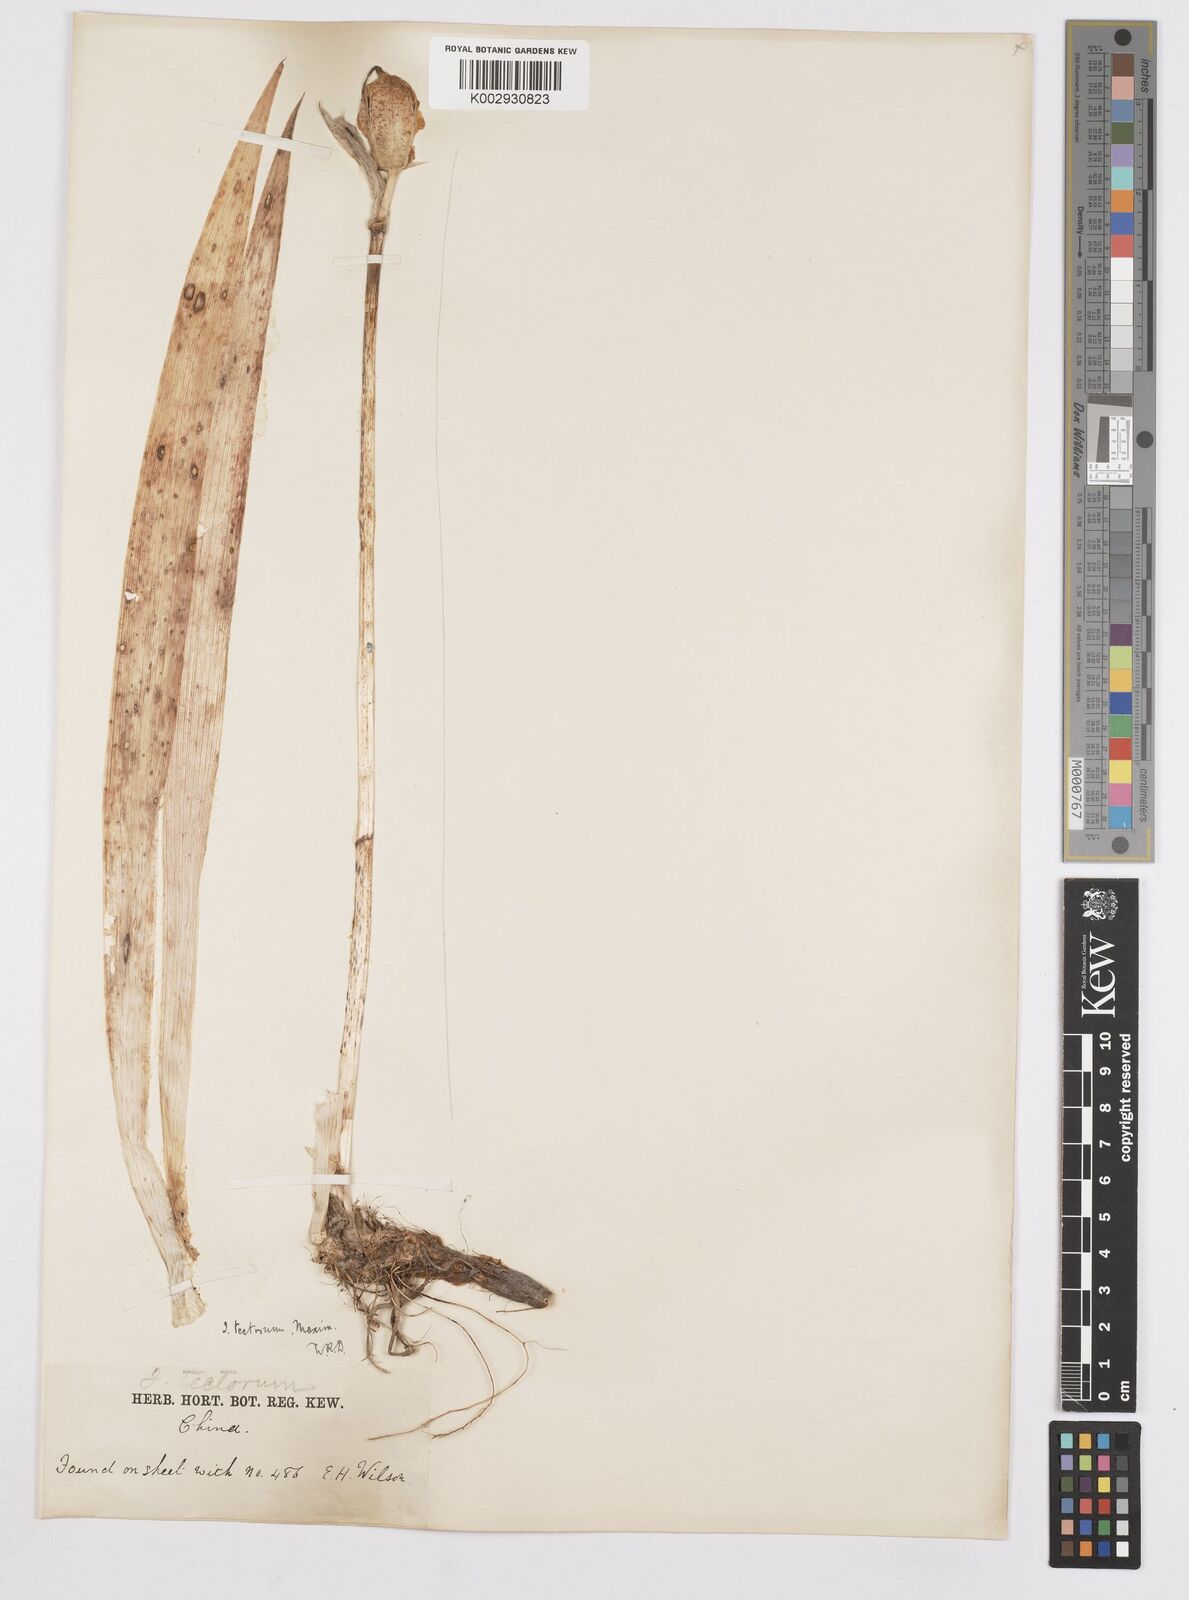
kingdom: Plantae
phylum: Tracheophyta
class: Liliopsida
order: Asparagales
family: Iridaceae
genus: Iris
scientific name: Iris tectorum
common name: Wall iris
